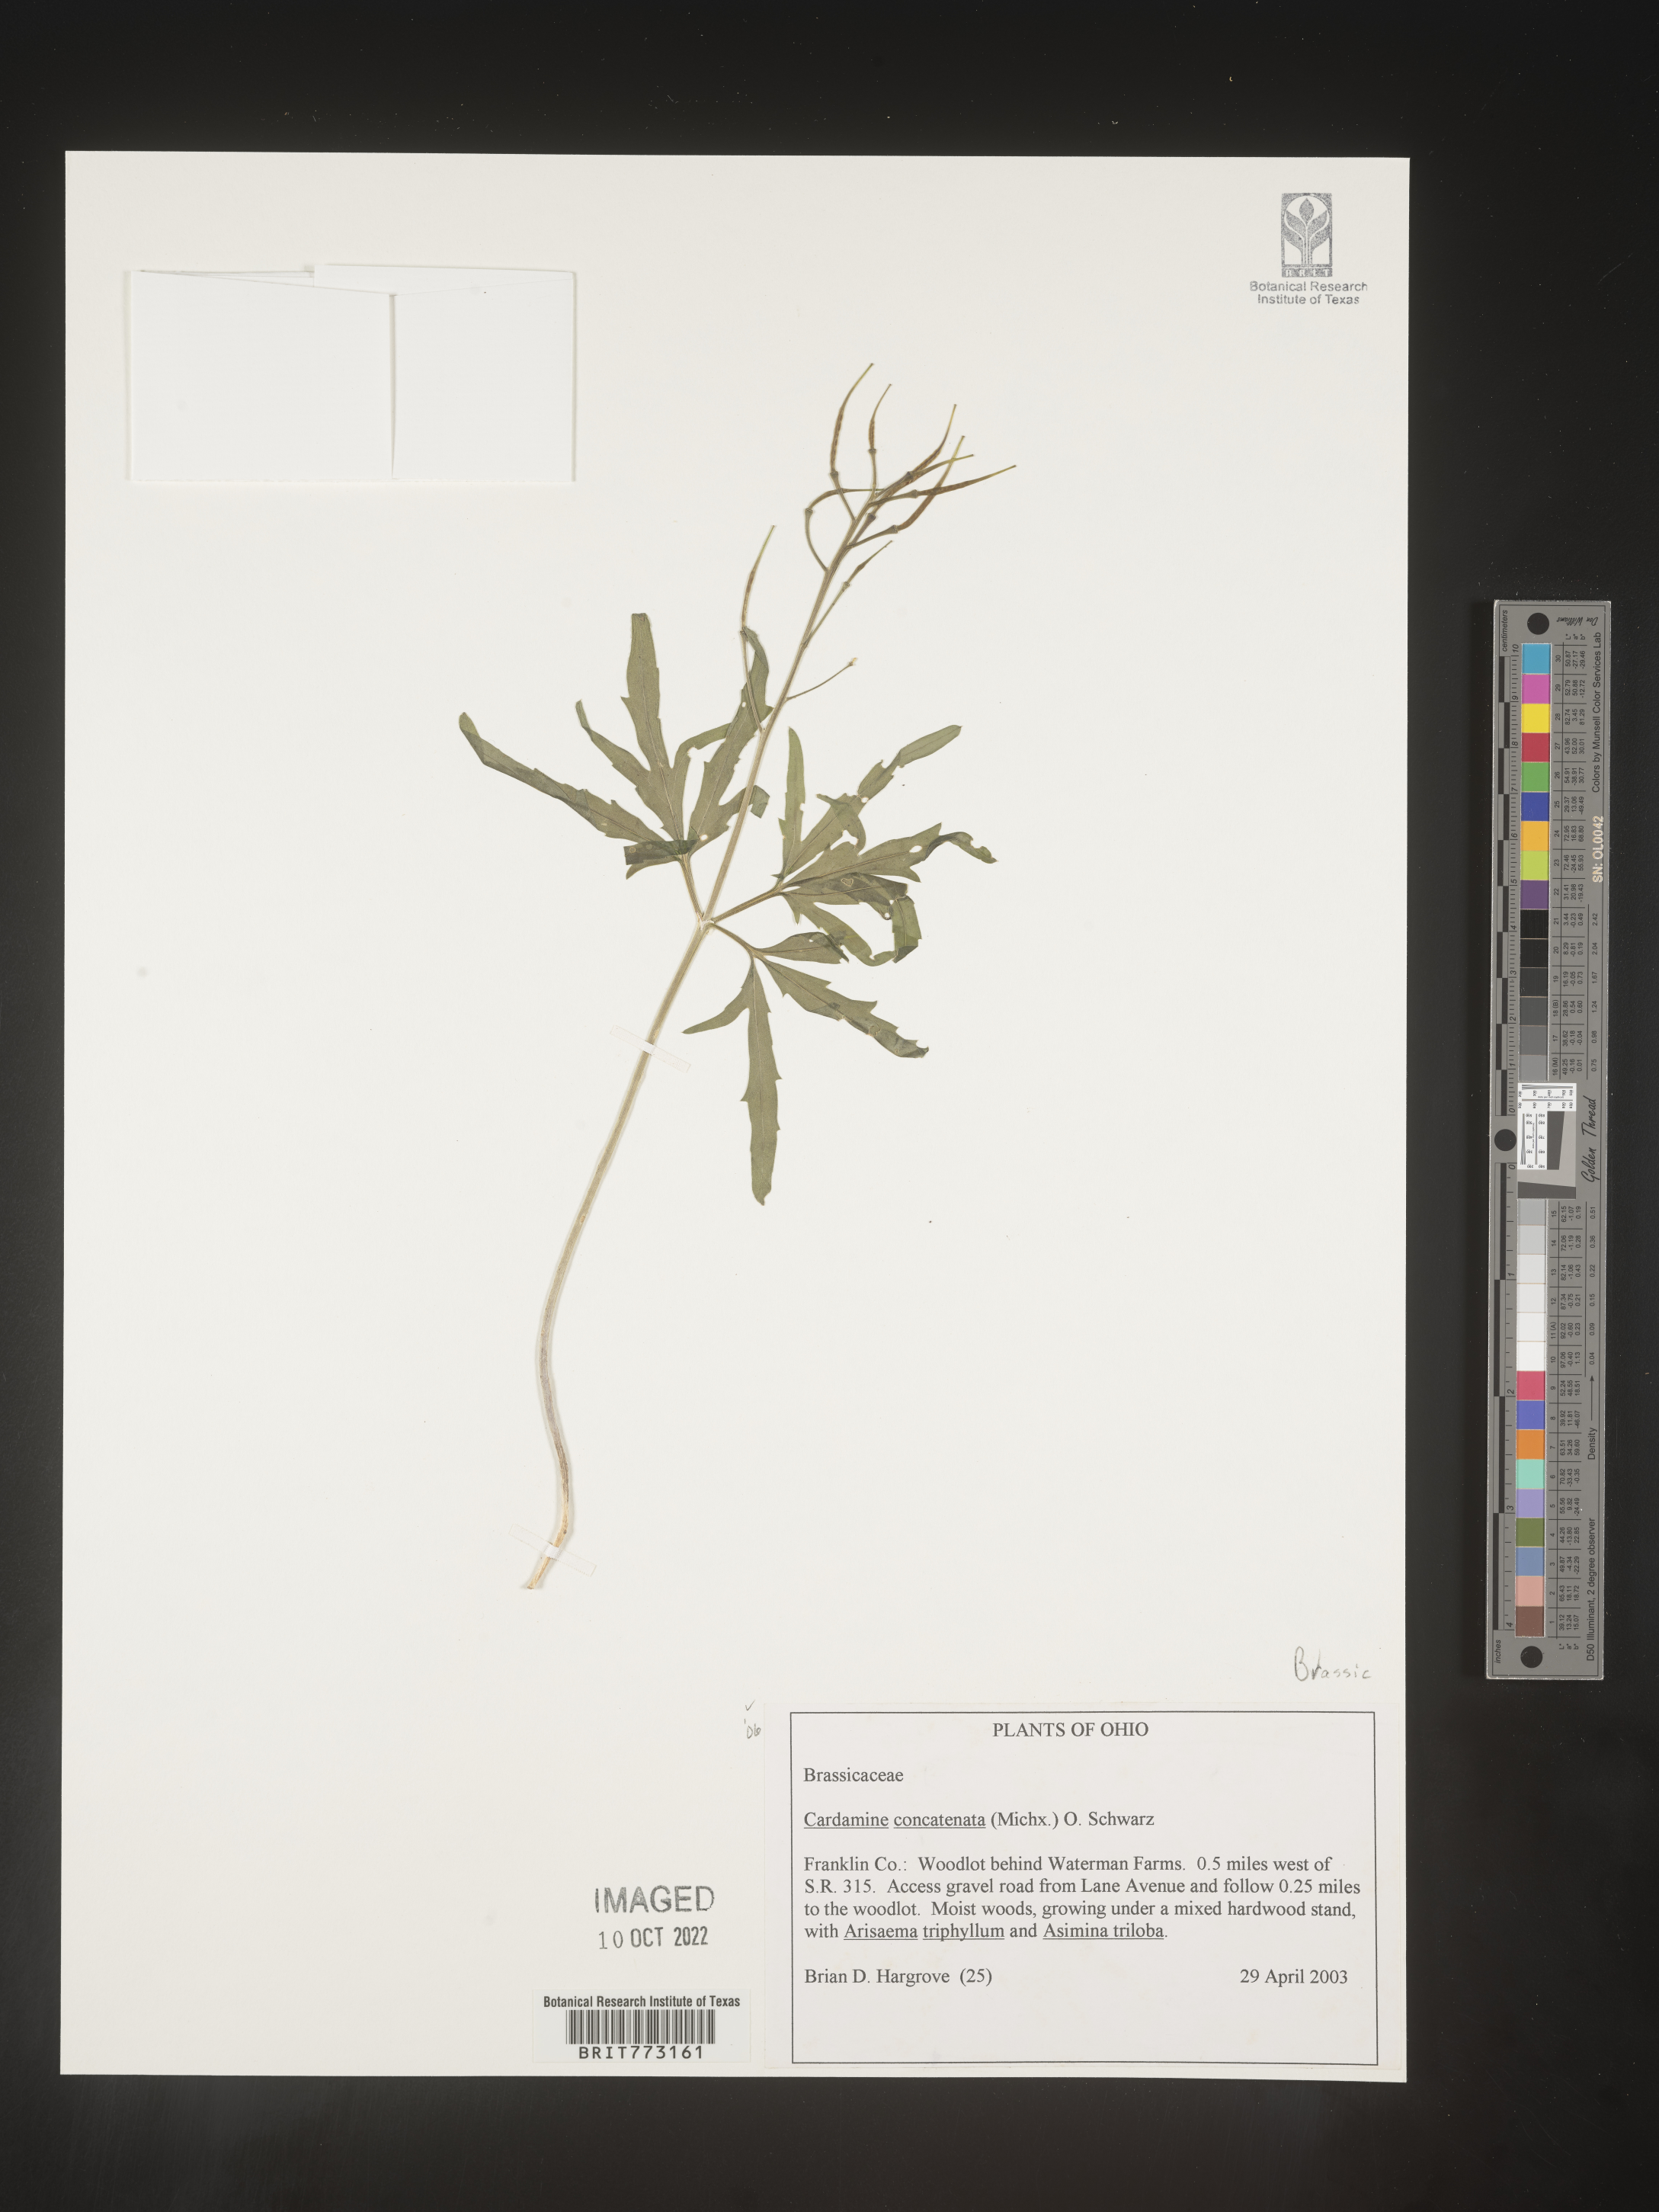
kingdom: Plantae
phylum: Tracheophyta
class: Magnoliopsida
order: Brassicales
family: Brassicaceae
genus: Cardamine
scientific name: Cardamine
